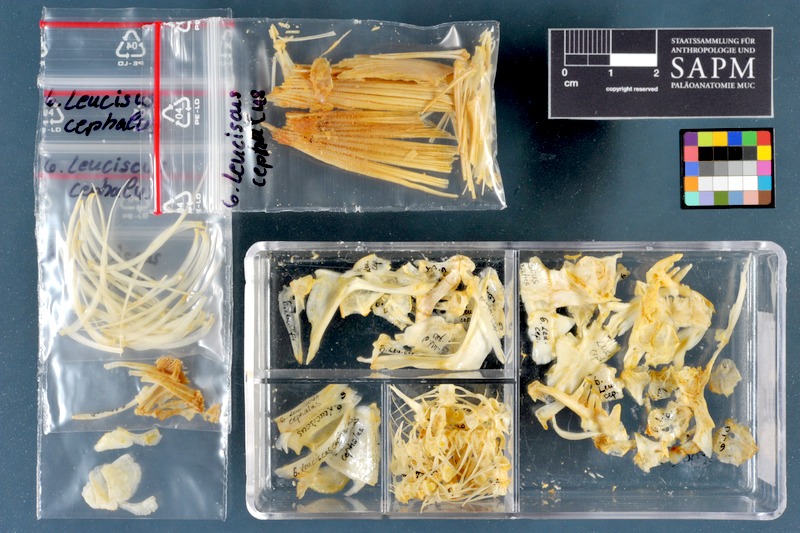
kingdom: Animalia
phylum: Chordata
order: Cypriniformes
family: Cyprinidae
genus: Squalius
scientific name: Squalius cephalus
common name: Chub
